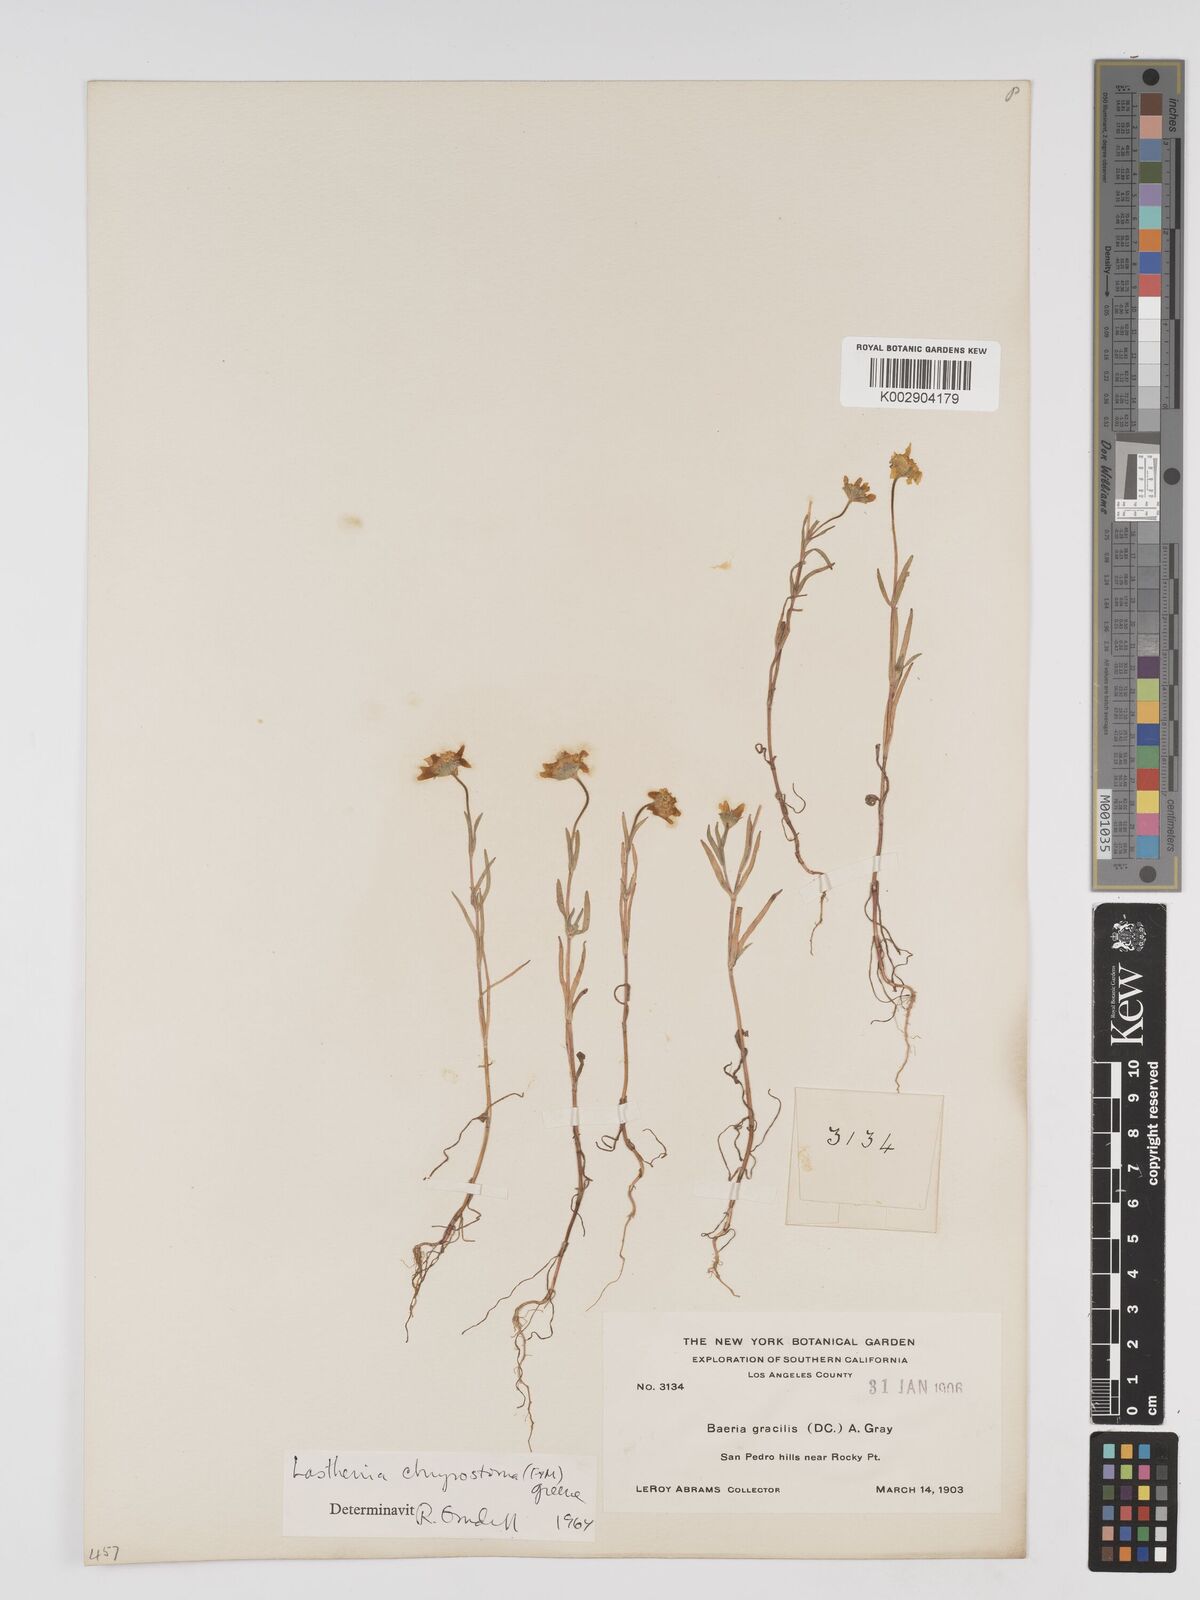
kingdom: Plantae
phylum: Tracheophyta
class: Magnoliopsida
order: Asterales
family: Asteraceae
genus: Lasthenia
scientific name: Lasthenia californica
